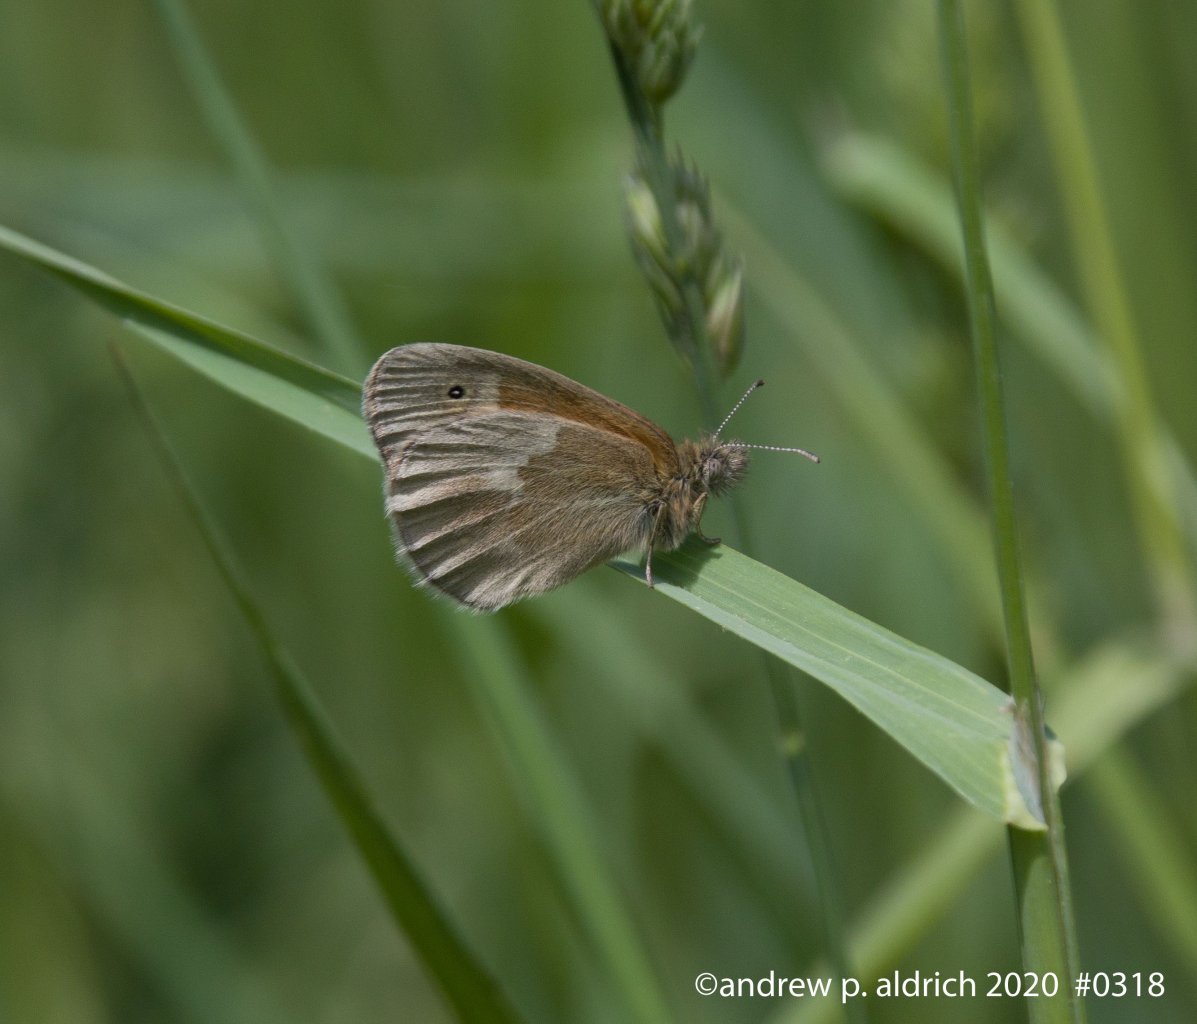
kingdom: Animalia
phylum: Arthropoda
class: Insecta
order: Lepidoptera
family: Nymphalidae
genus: Coenonympha
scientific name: Coenonympha tullia
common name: Large Heath
